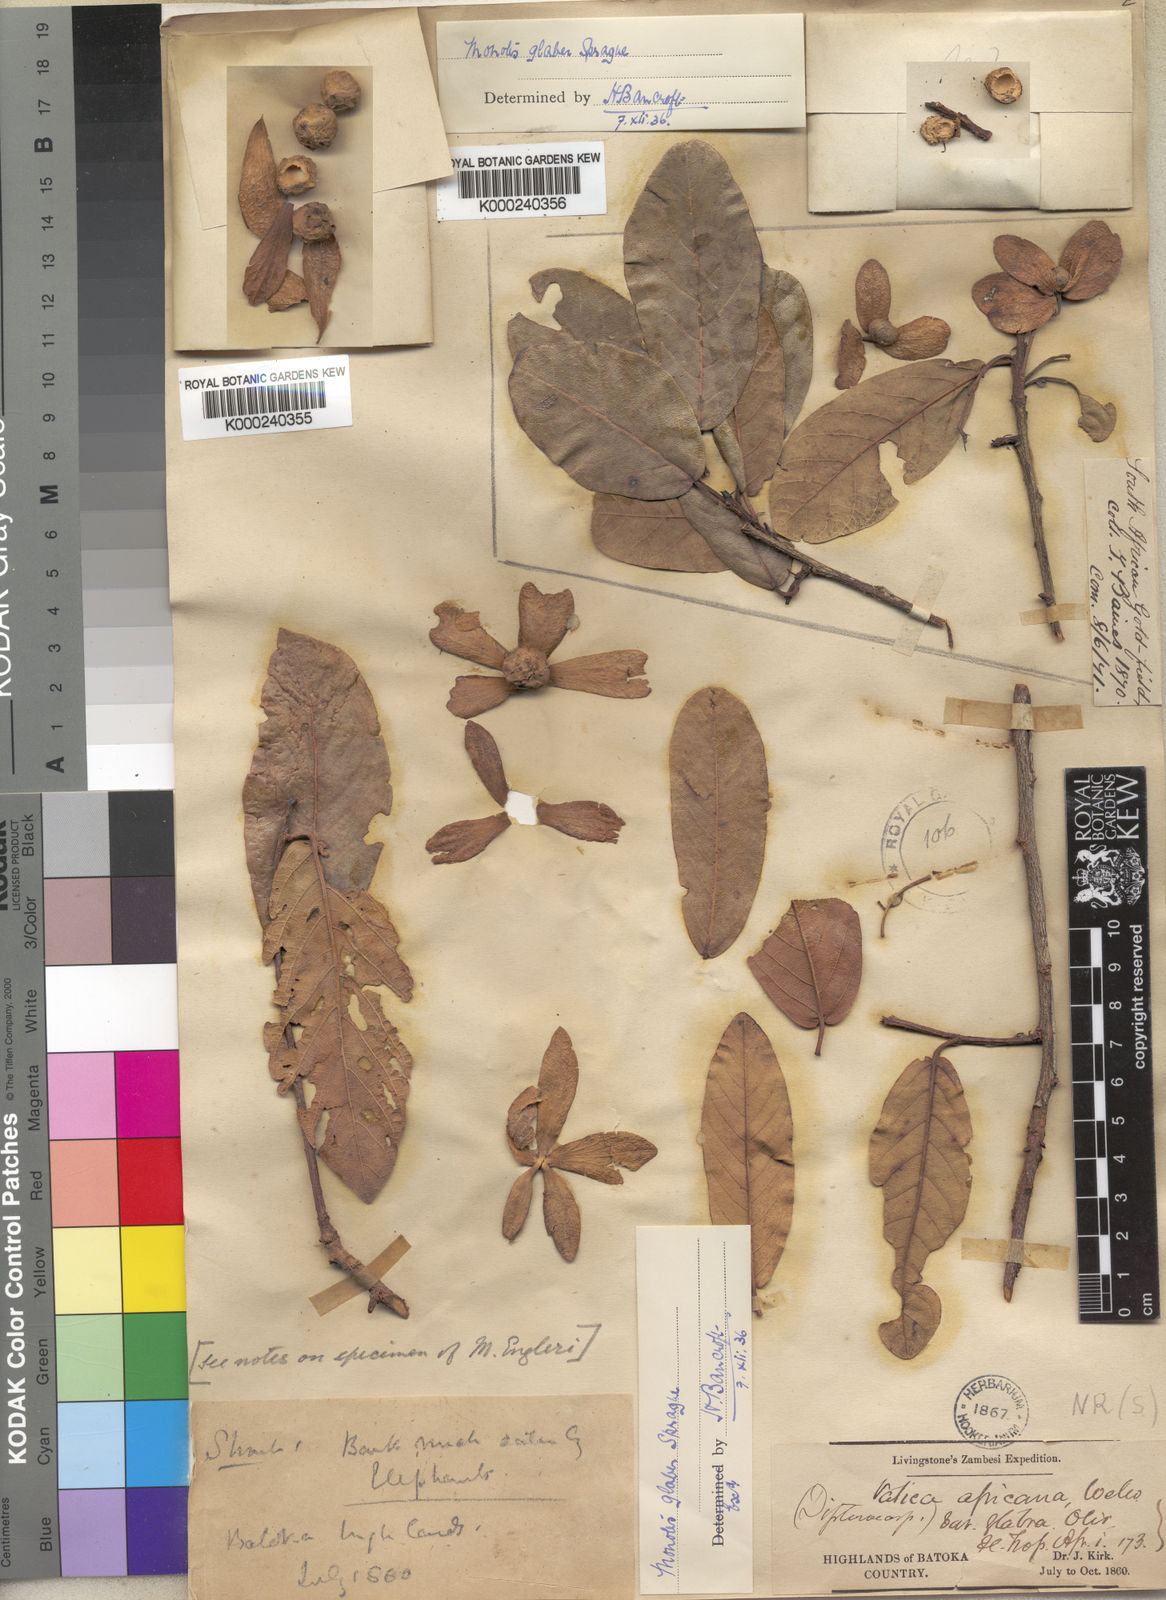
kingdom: Plantae
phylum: Tracheophyta
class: Magnoliopsida
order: Malvales
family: Dipterocarpaceae
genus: Monotes
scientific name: Monotes glaber
